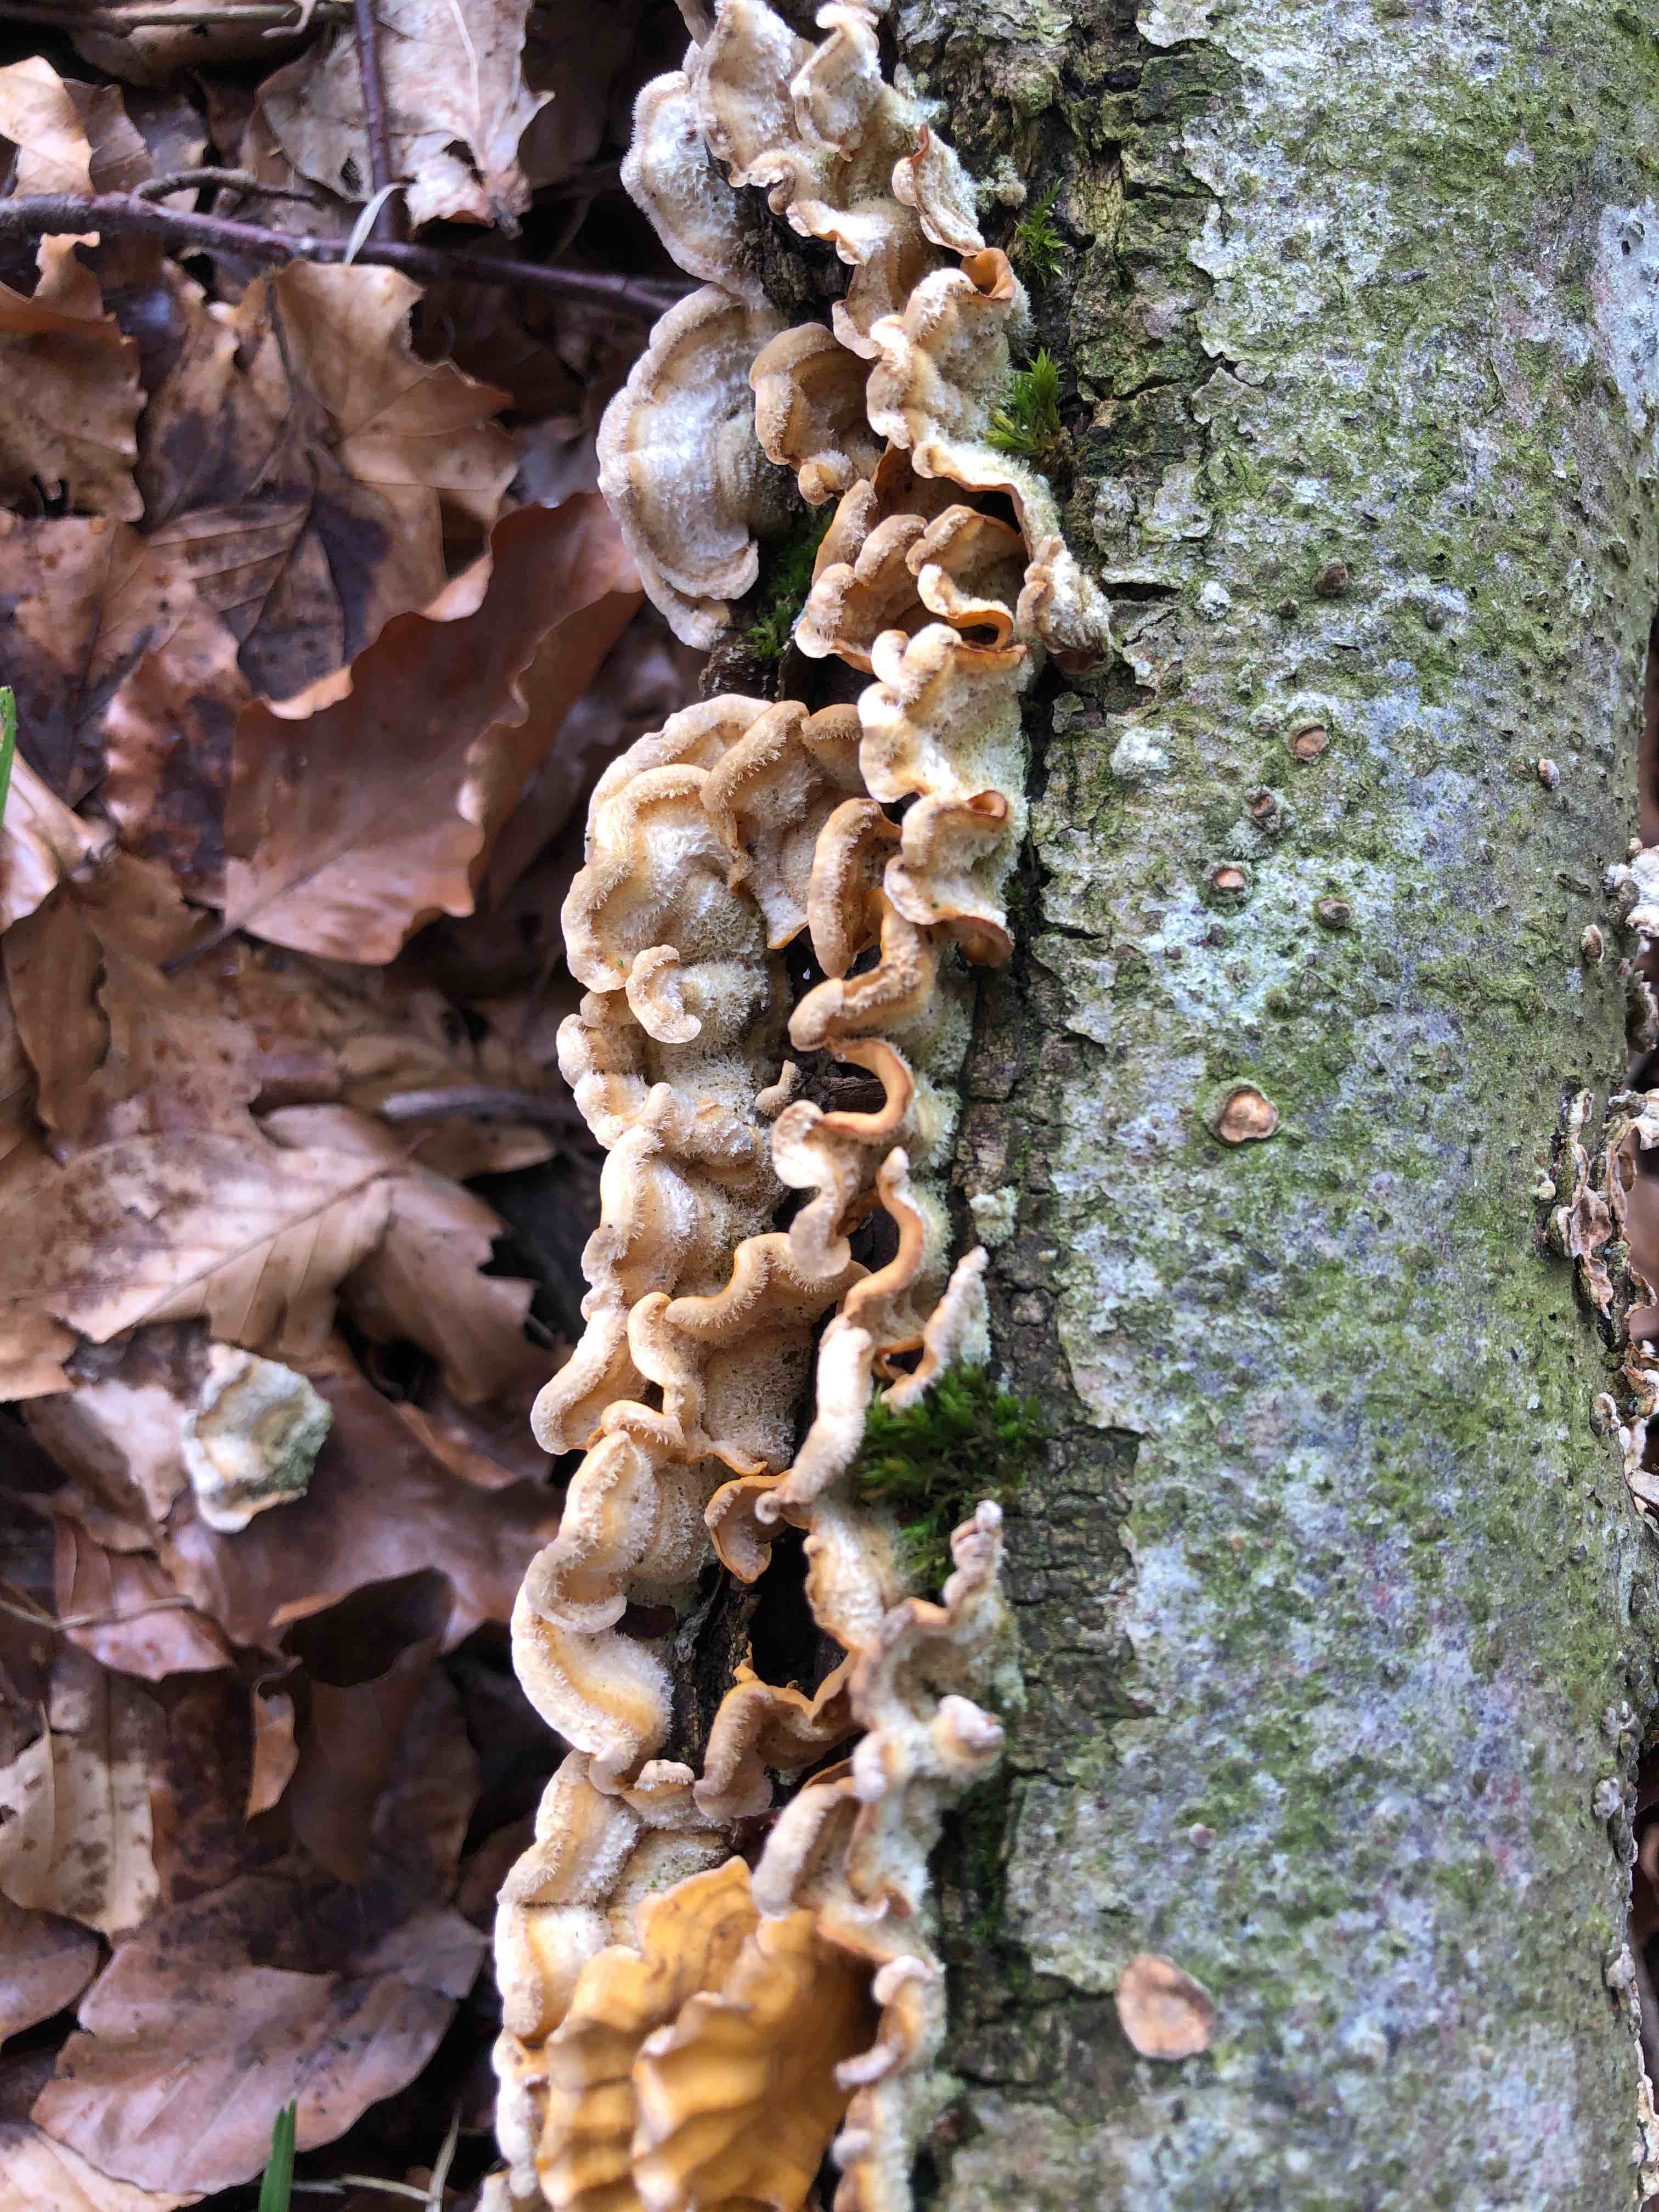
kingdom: Fungi
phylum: Basidiomycota
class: Agaricomycetes
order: Russulales
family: Stereaceae
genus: Stereum
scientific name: Stereum hirsutum
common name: håret lædersvamp
